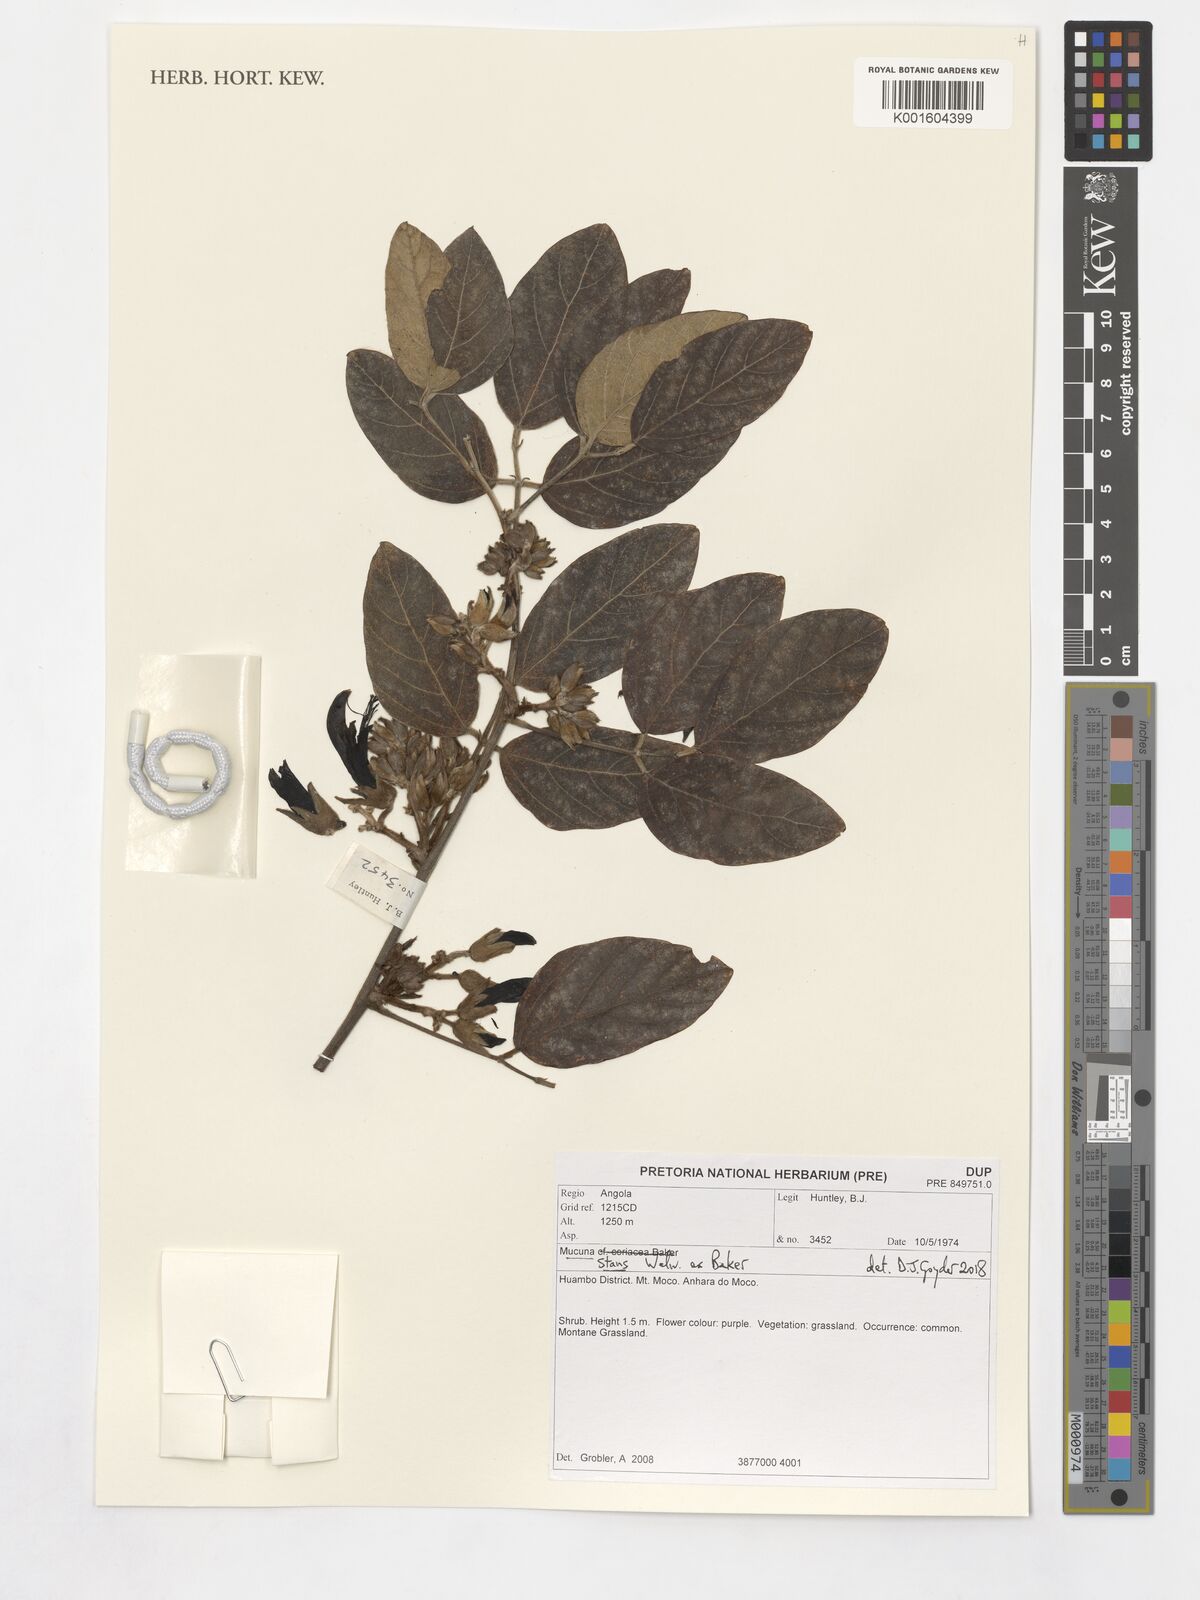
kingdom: Plantae
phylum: Tracheophyta
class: Magnoliopsida
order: Fabales
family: Fabaceae
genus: Mucuna
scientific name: Mucuna stans
